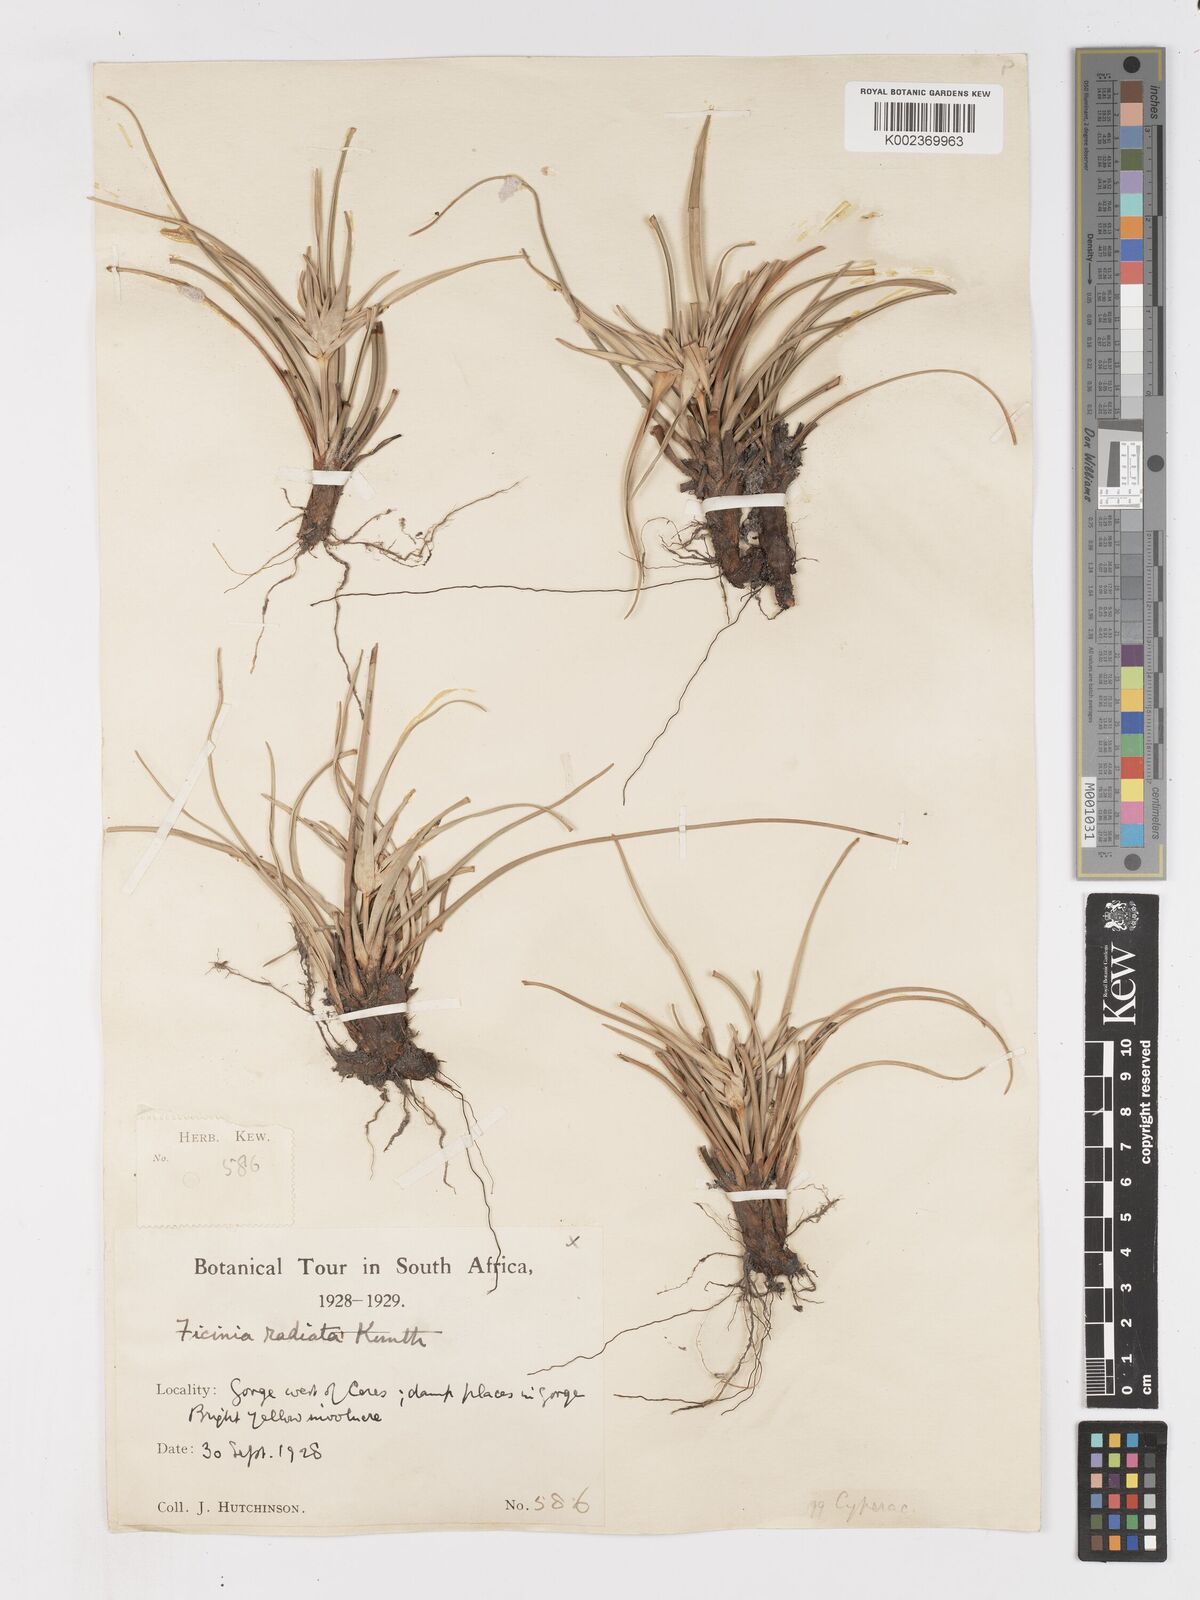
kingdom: Plantae
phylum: Tracheophyta
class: Liliopsida
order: Poales
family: Cyperaceae
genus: Ficinia
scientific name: Ficinia radiata
